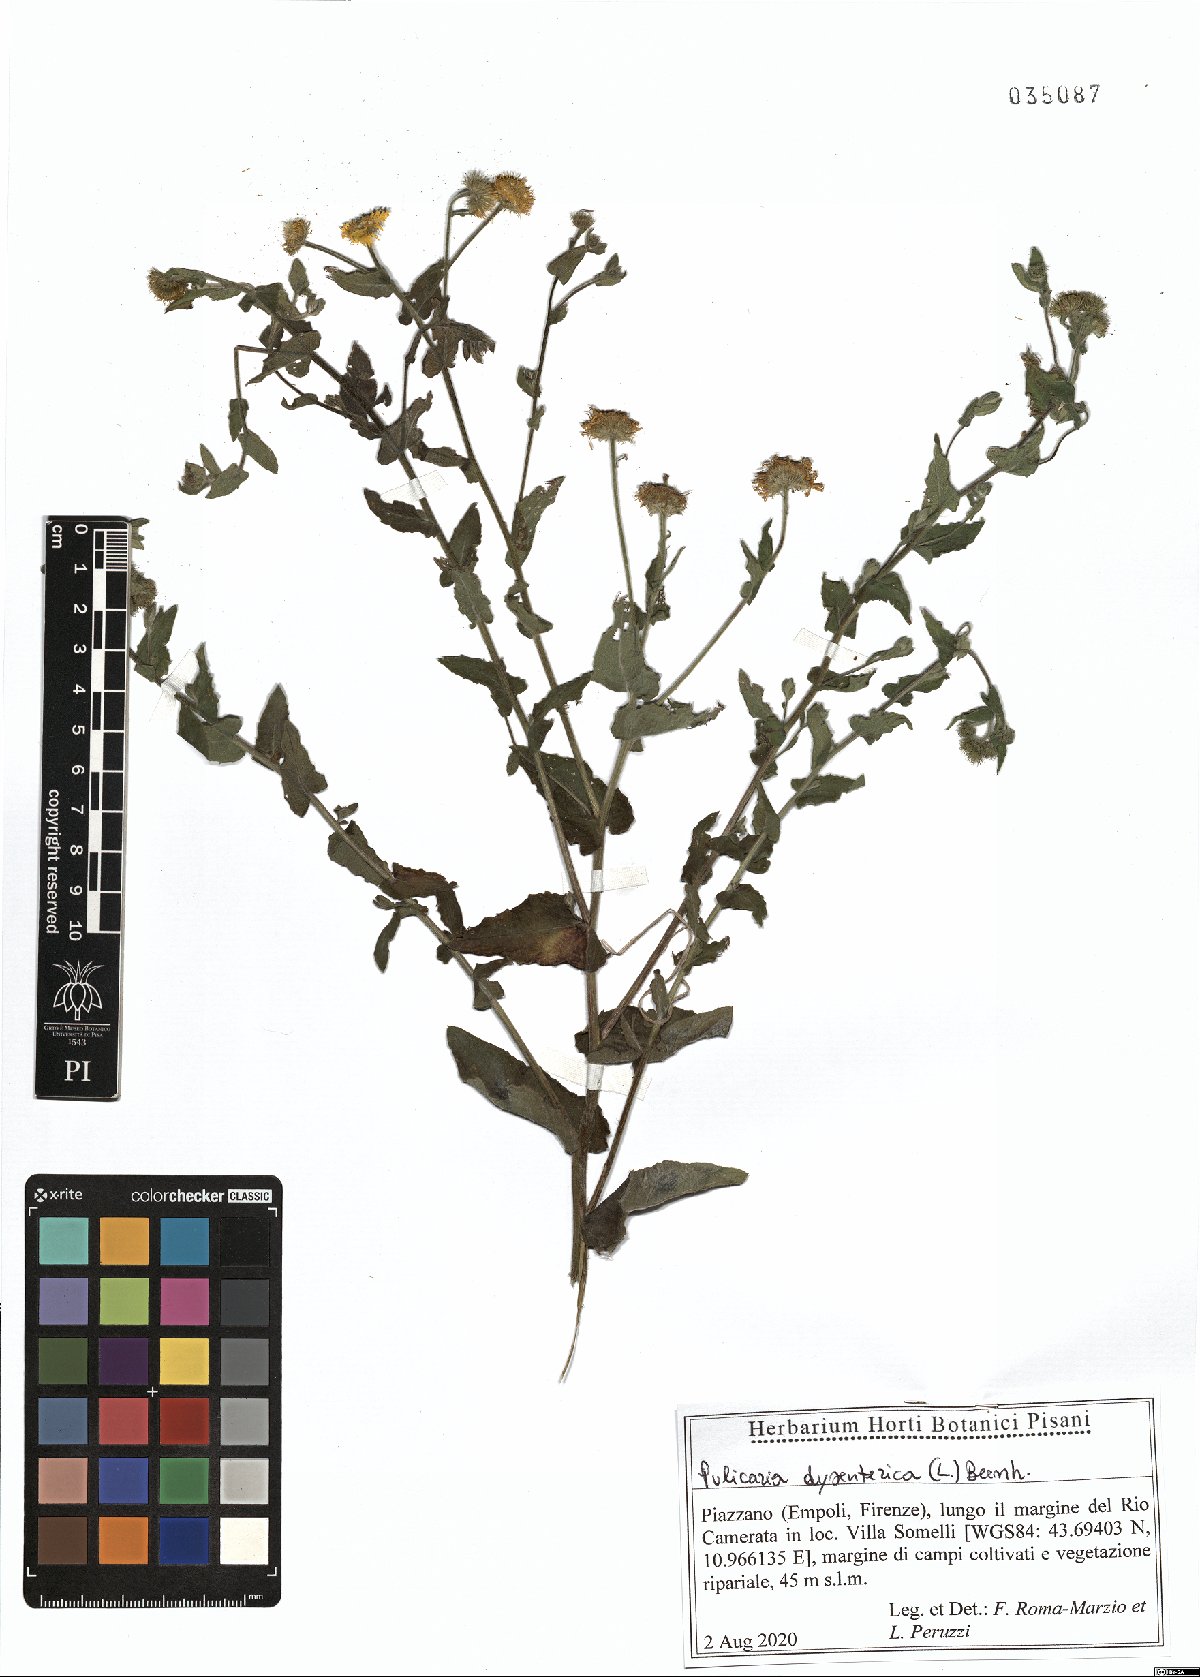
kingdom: Plantae
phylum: Tracheophyta
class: Magnoliopsida
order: Asterales
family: Asteraceae
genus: Pulicaria
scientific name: Pulicaria dysenterica
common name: Common fleabane
